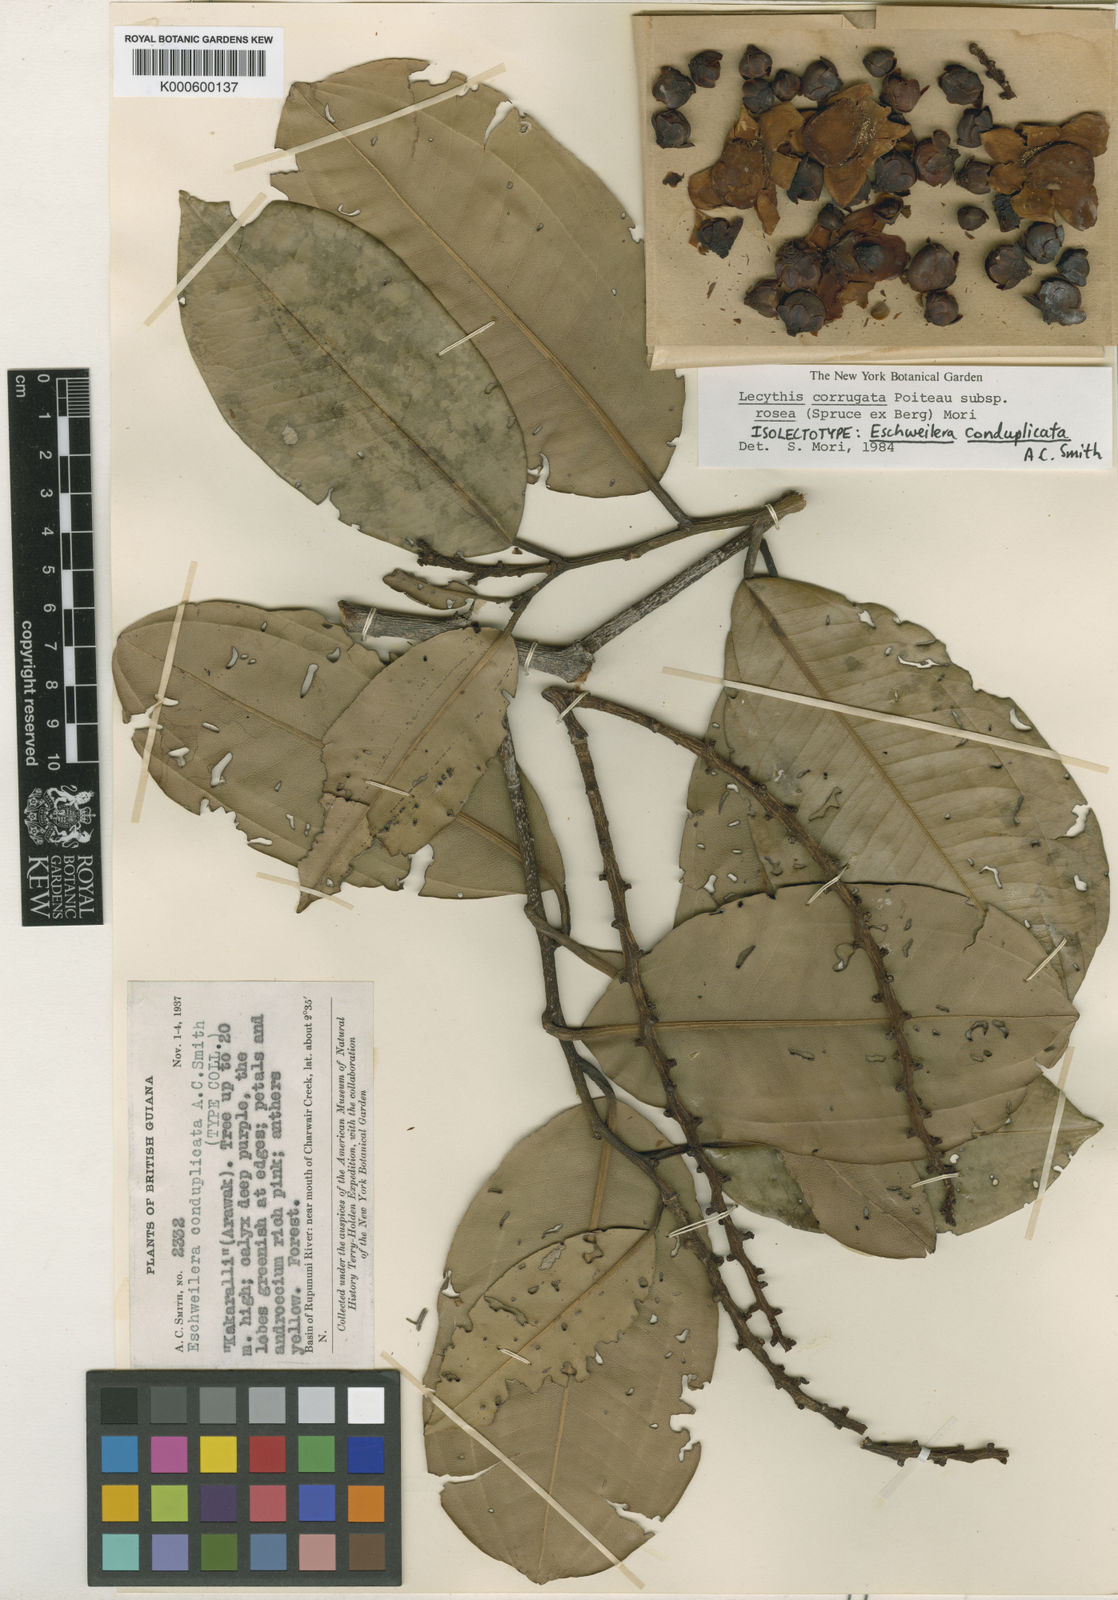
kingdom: Plantae
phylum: Tracheophyta
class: Magnoliopsida
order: Ericales
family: Lecythidaceae
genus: Lecythis
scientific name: Lecythis corrugata
